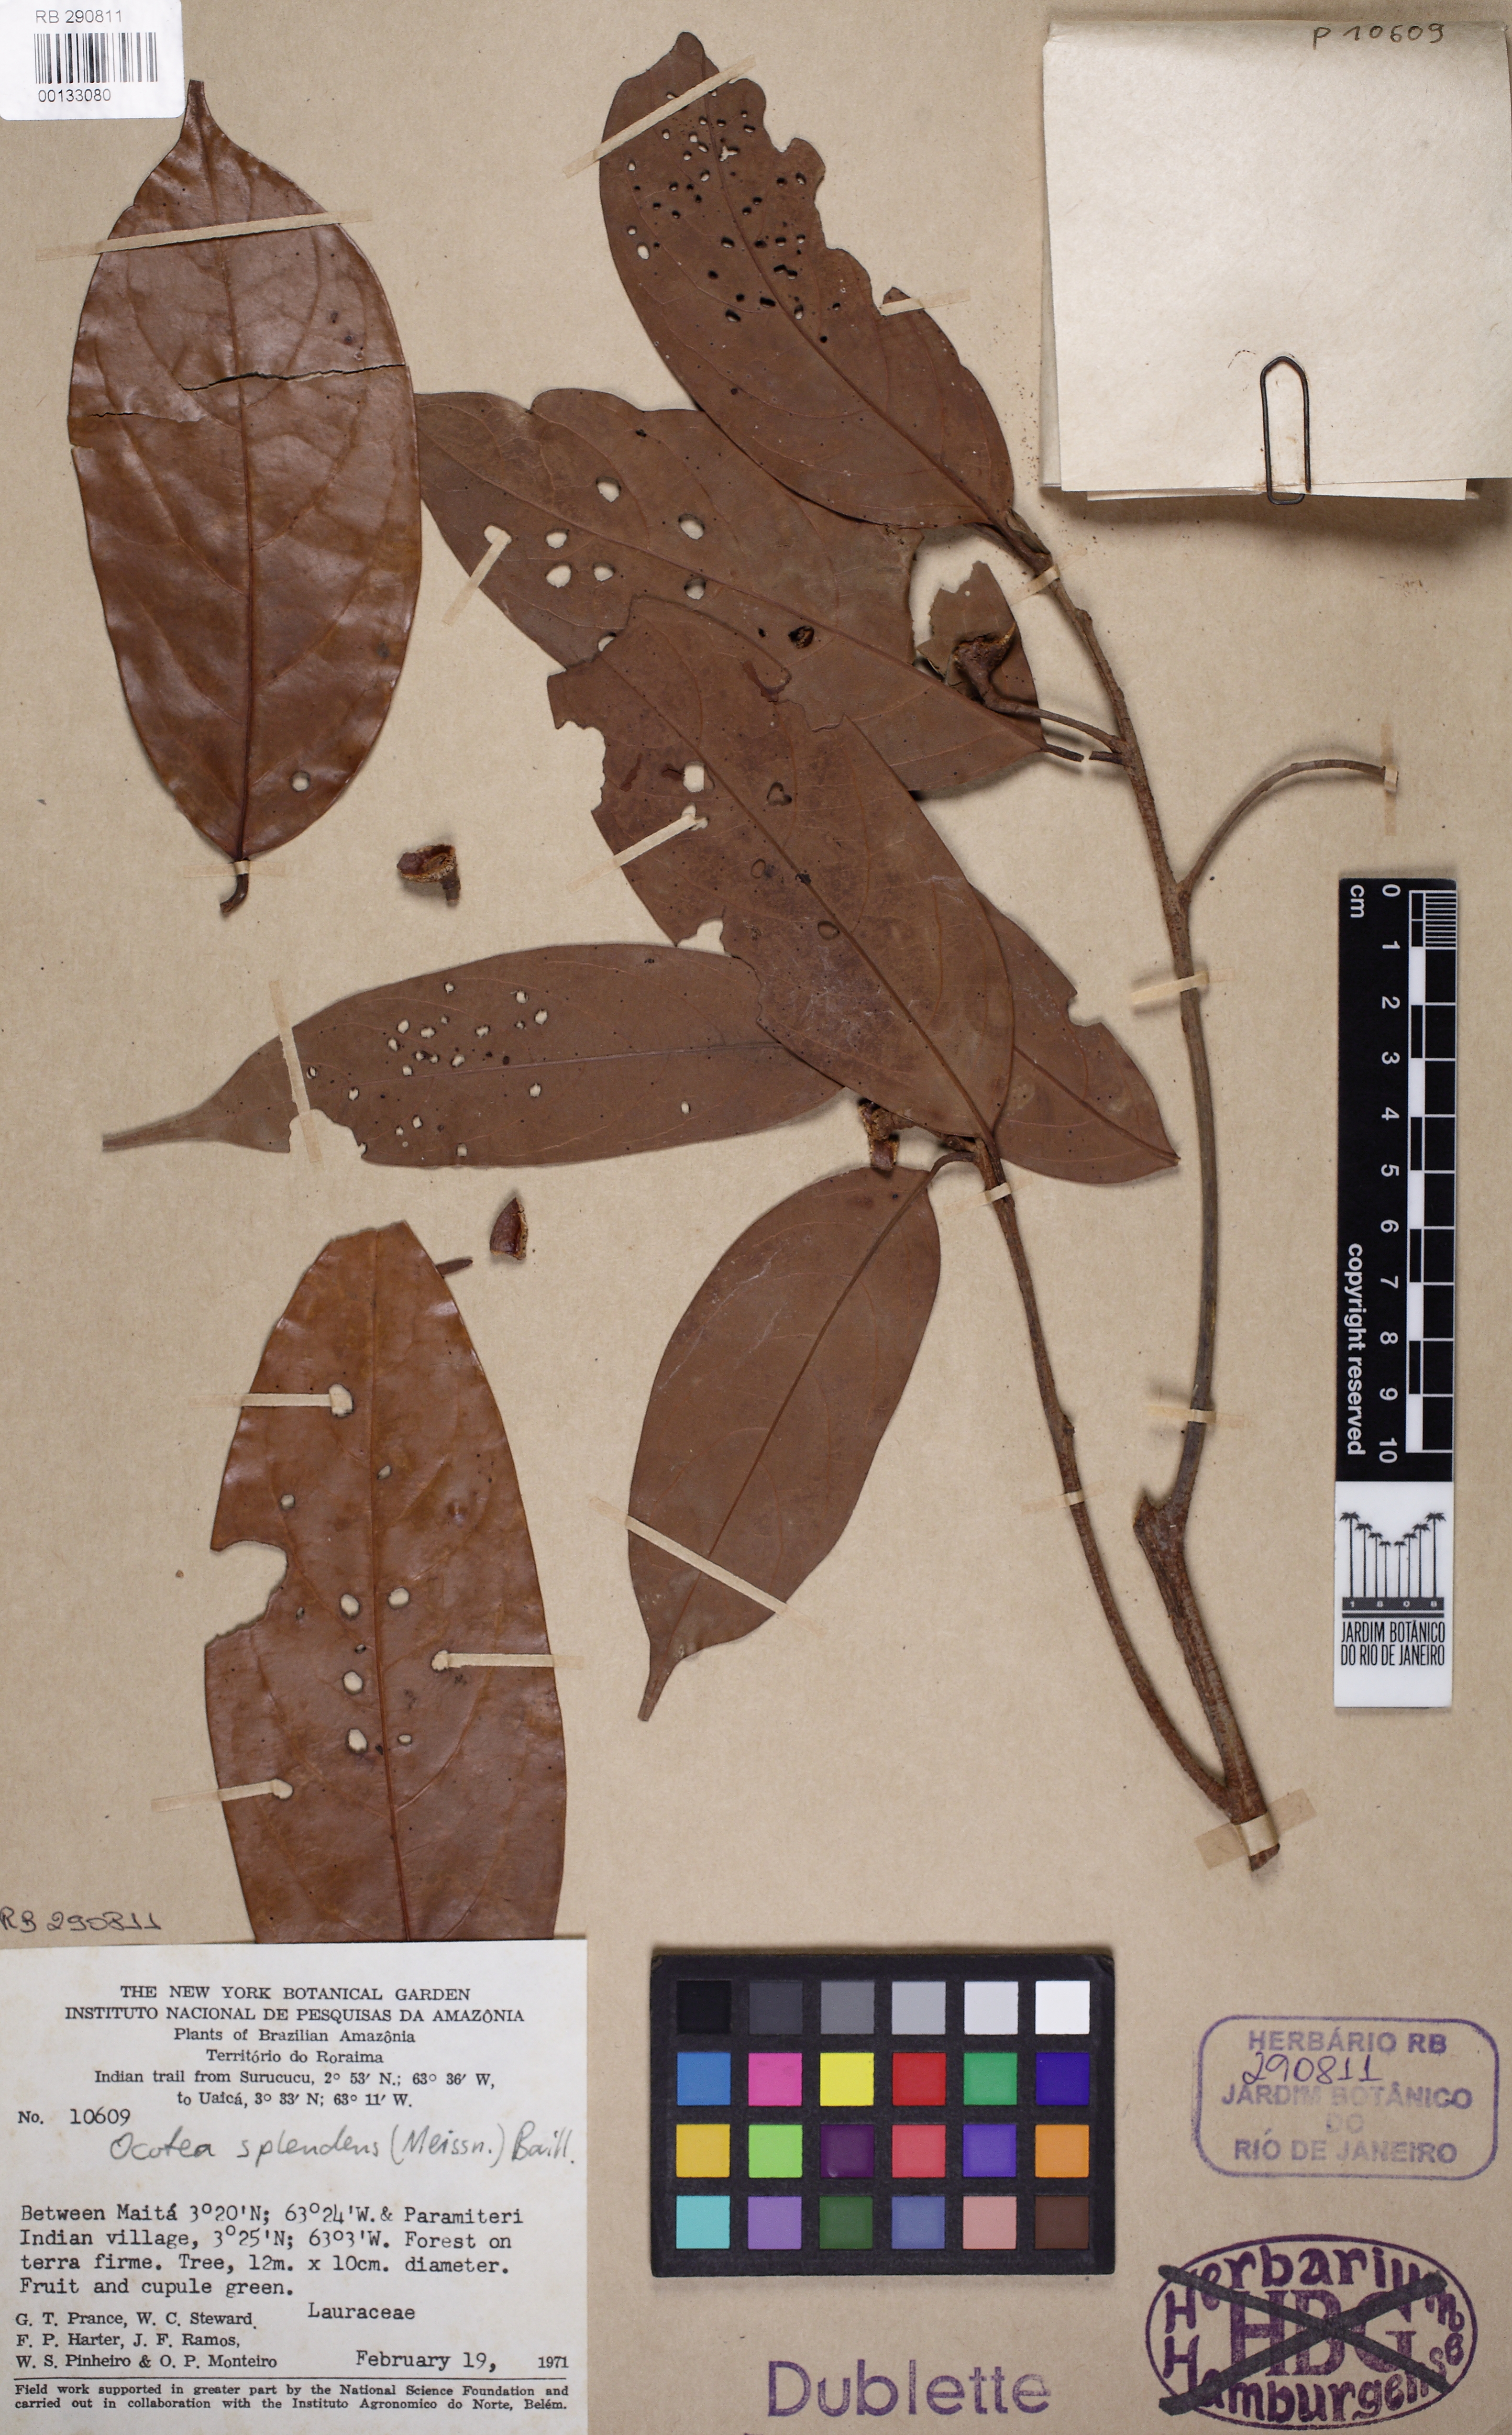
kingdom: Plantae
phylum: Tracheophyta
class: Magnoliopsida
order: Laurales
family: Lauraceae
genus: Ocotea
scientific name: Ocotea splendens
